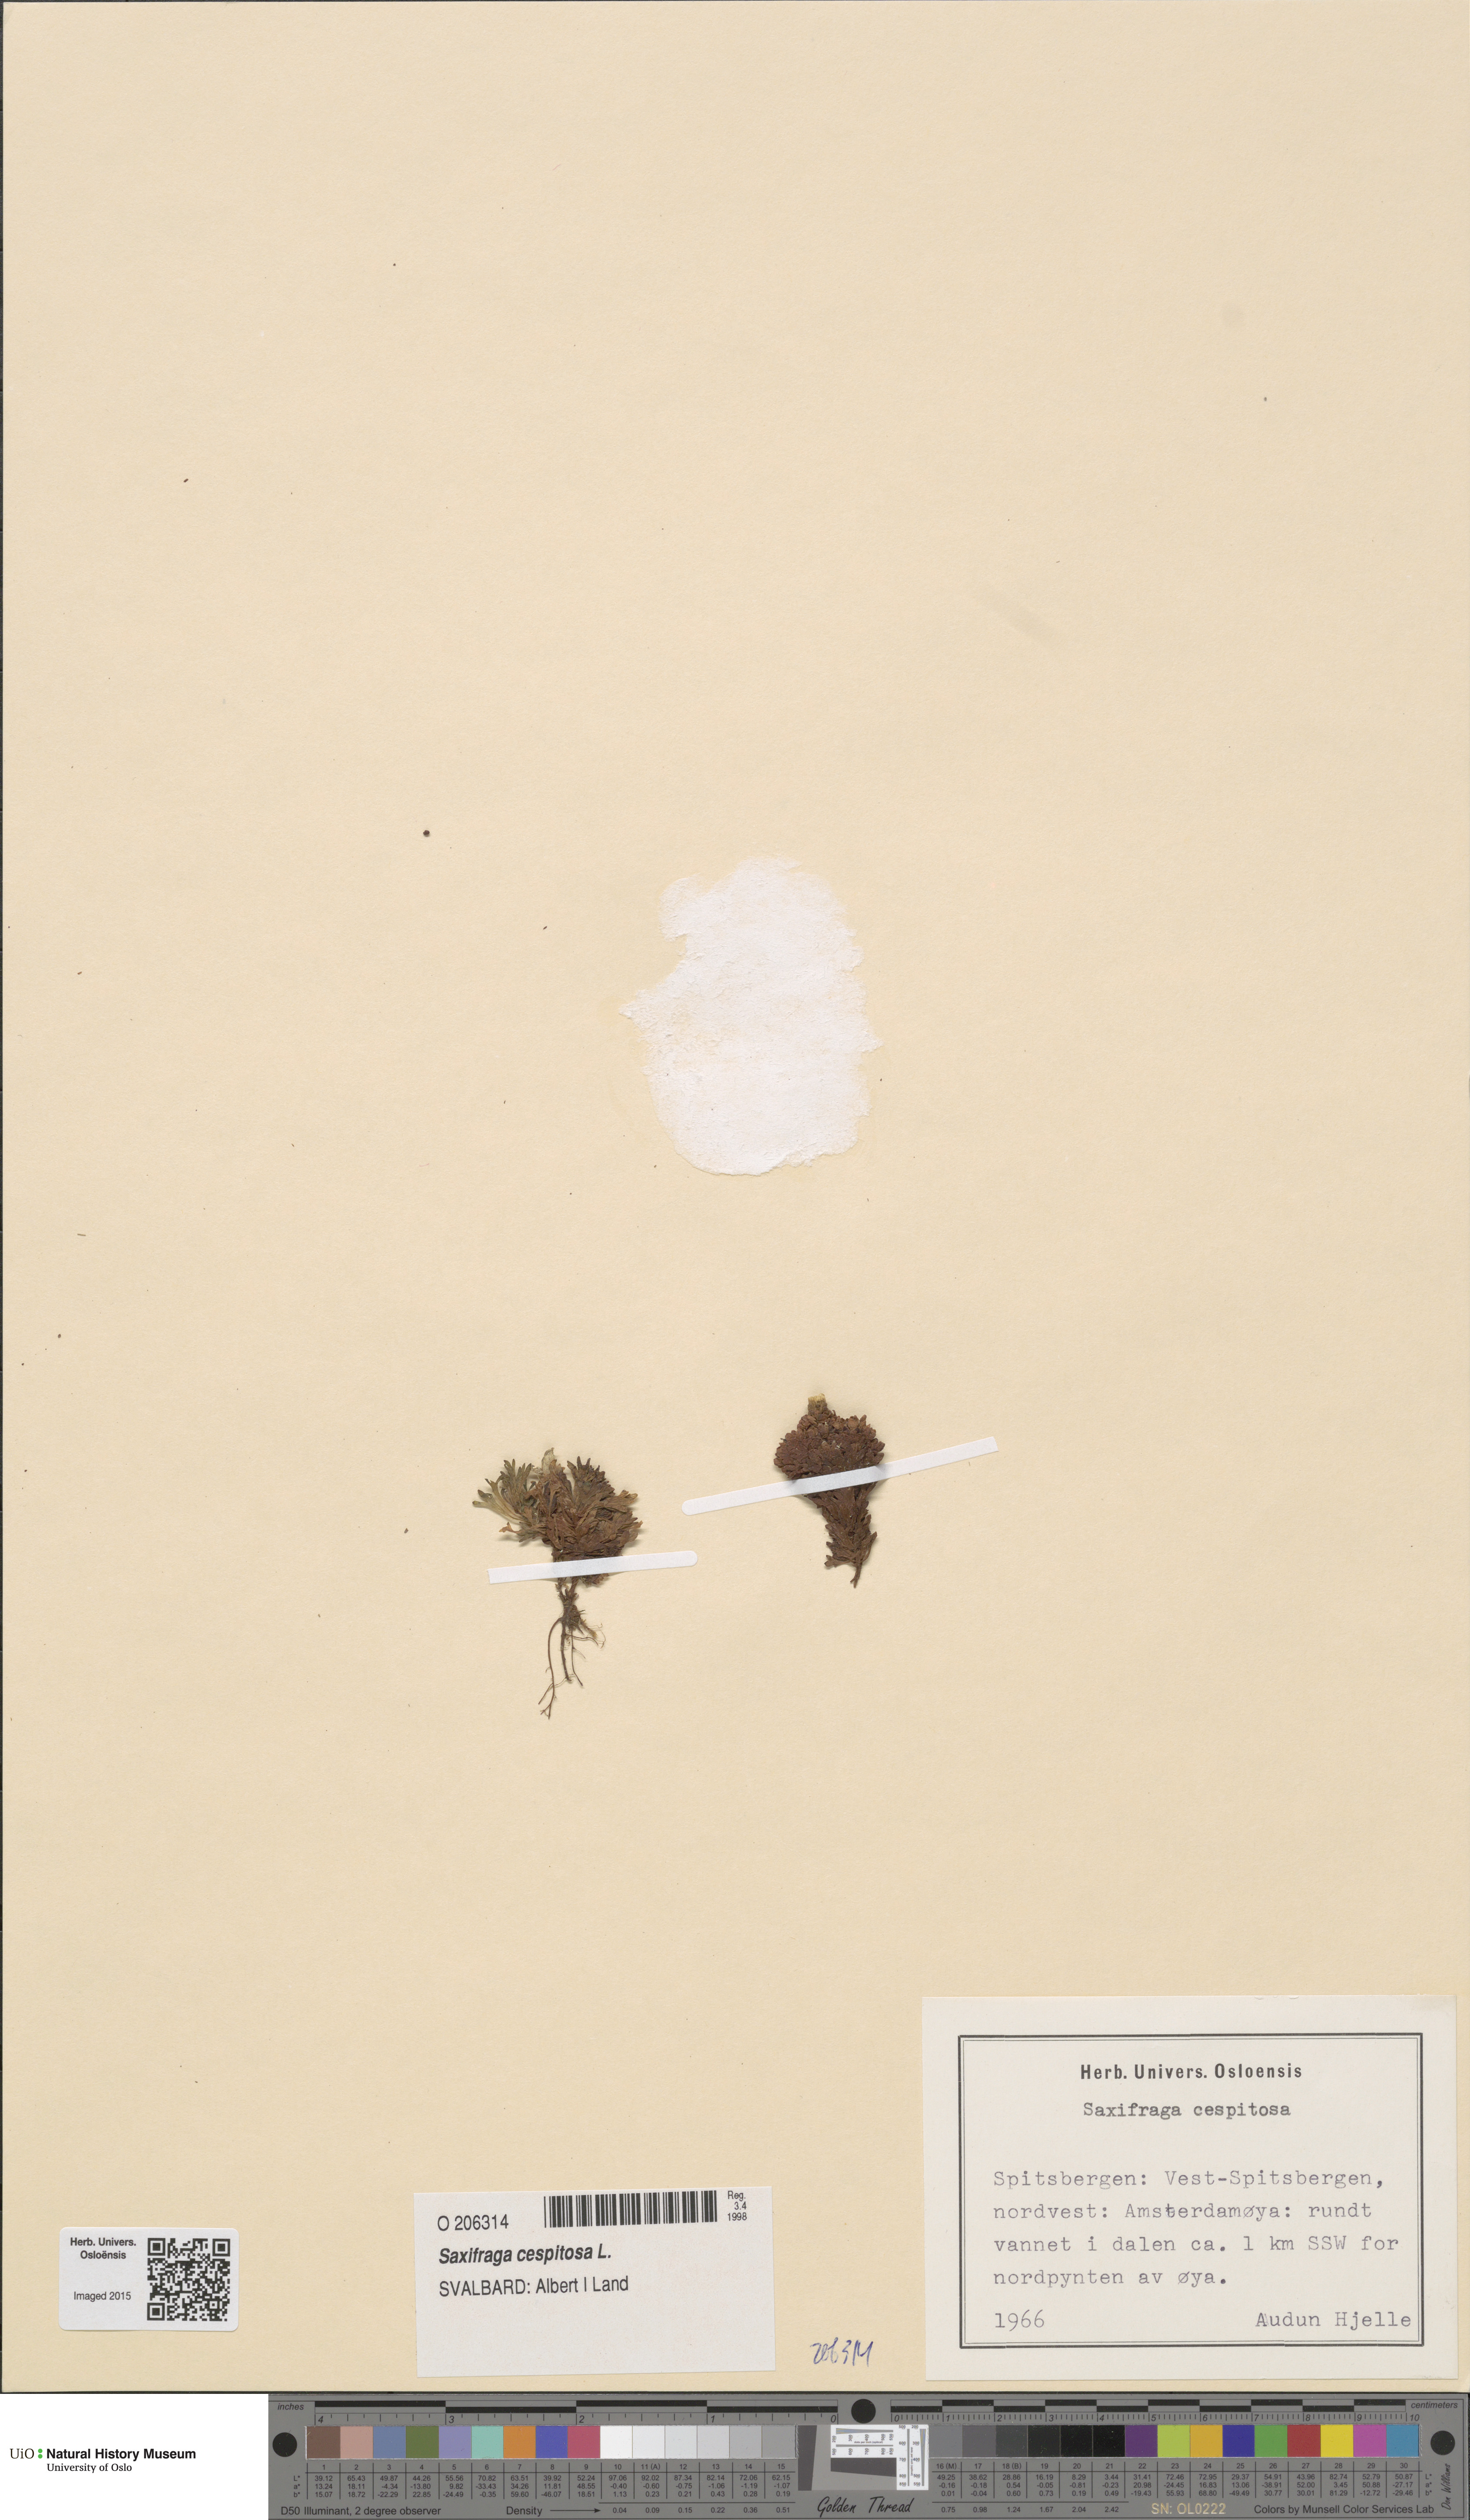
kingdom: Plantae
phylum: Tracheophyta
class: Magnoliopsida
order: Saxifragales
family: Saxifragaceae
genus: Saxifraga
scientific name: Saxifraga cespitosa
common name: Tufted saxifrage
